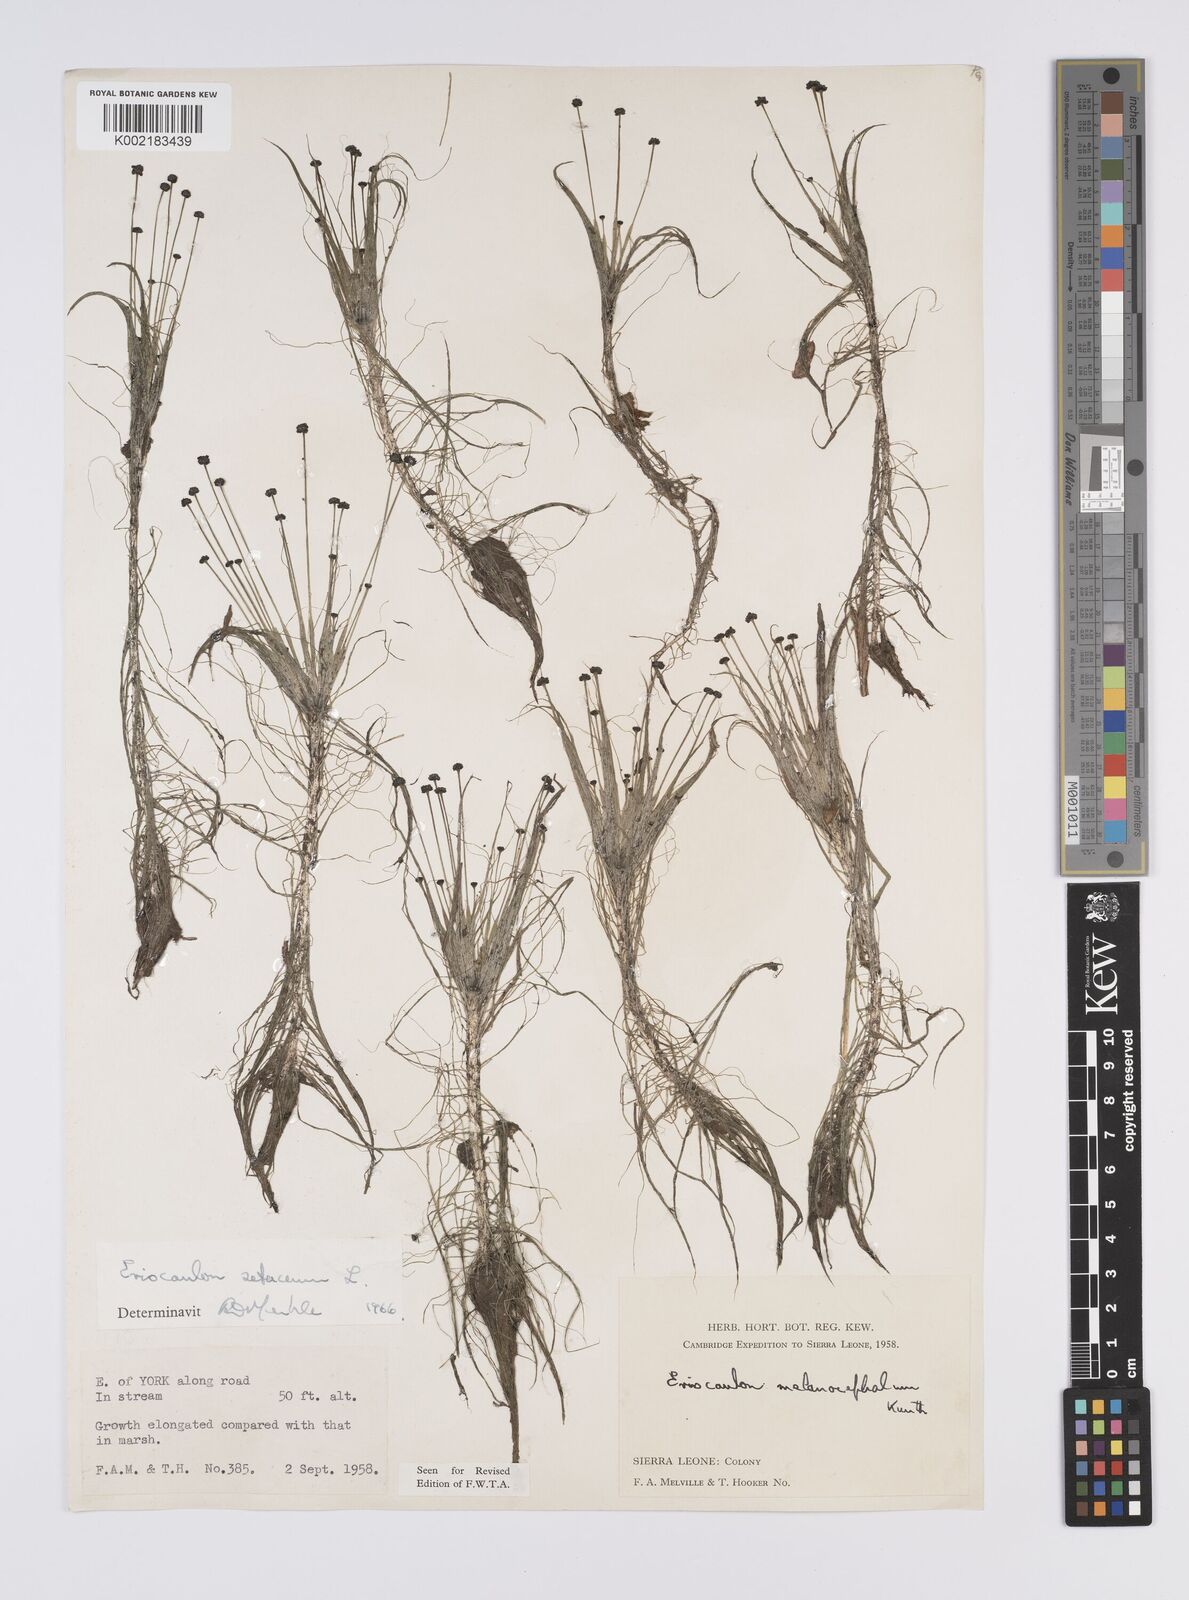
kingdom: Plantae
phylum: Tracheophyta
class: Liliopsida
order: Poales
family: Eriocaulaceae
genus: Eriocaulon
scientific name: Eriocaulon setaceum
